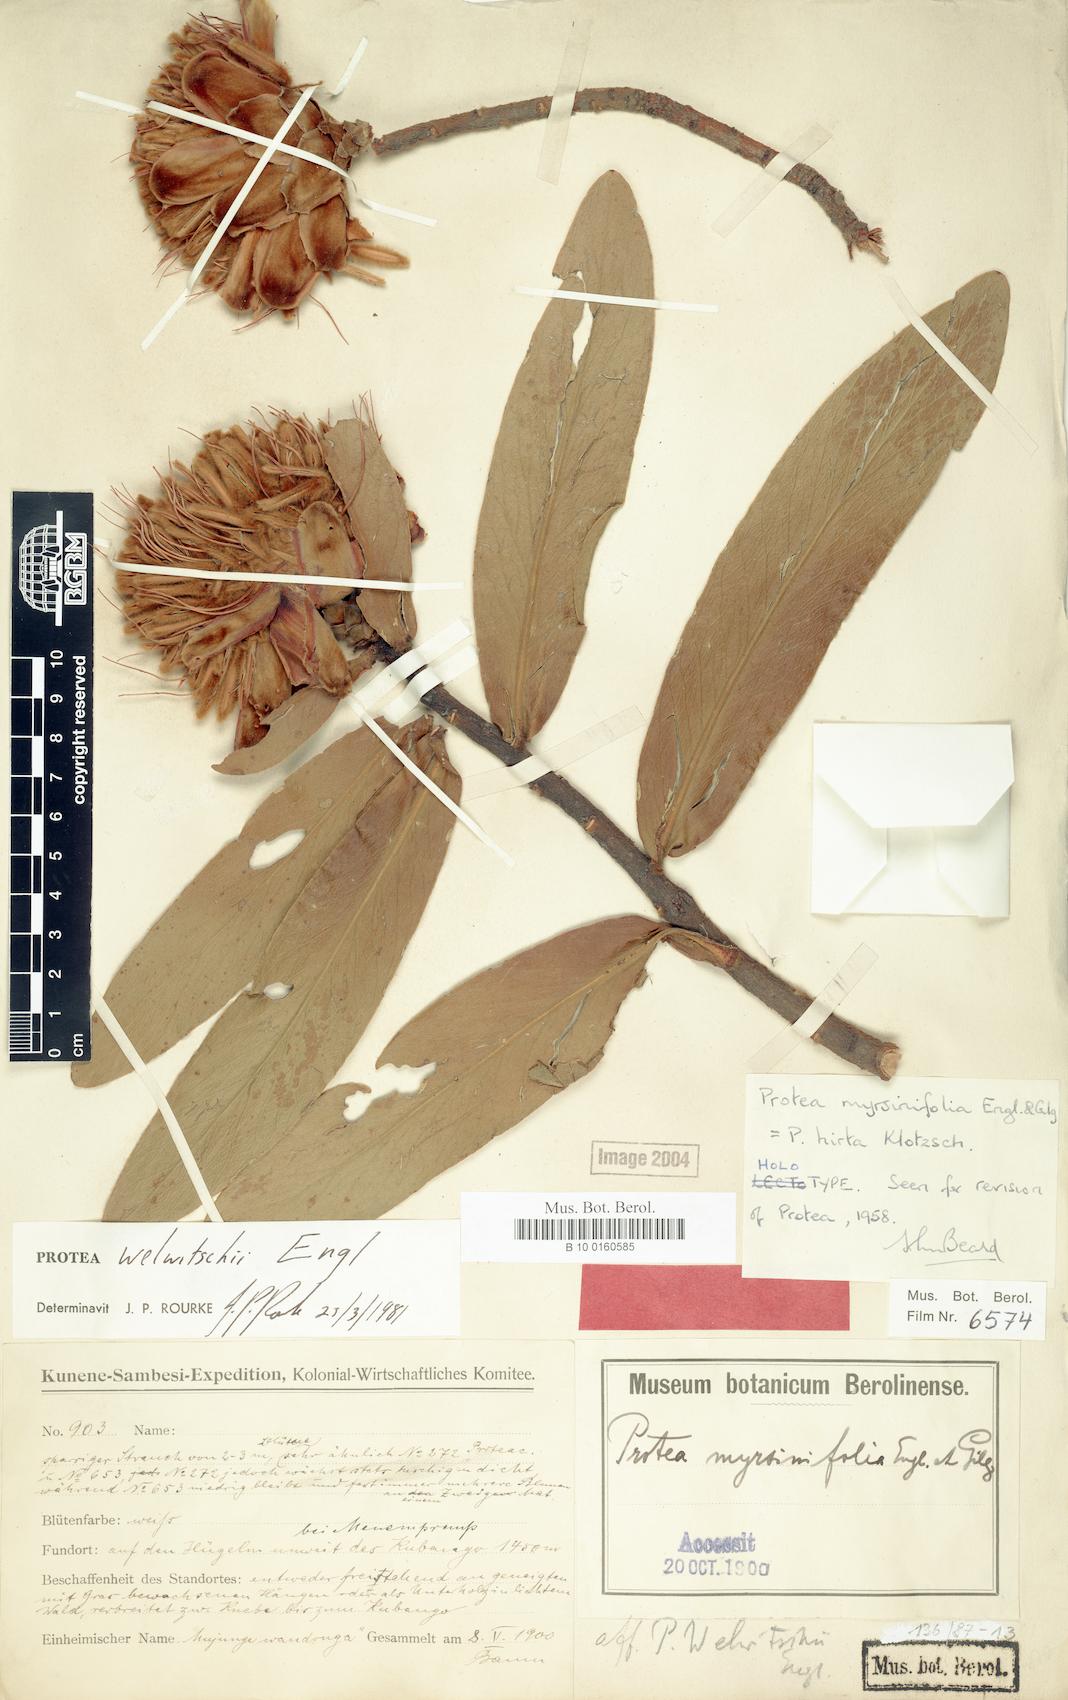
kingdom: Plantae
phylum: Tracheophyta
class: Magnoliopsida
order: Proteales
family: Proteaceae
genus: Protea
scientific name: Protea welwitschii
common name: Cluster-head protea
